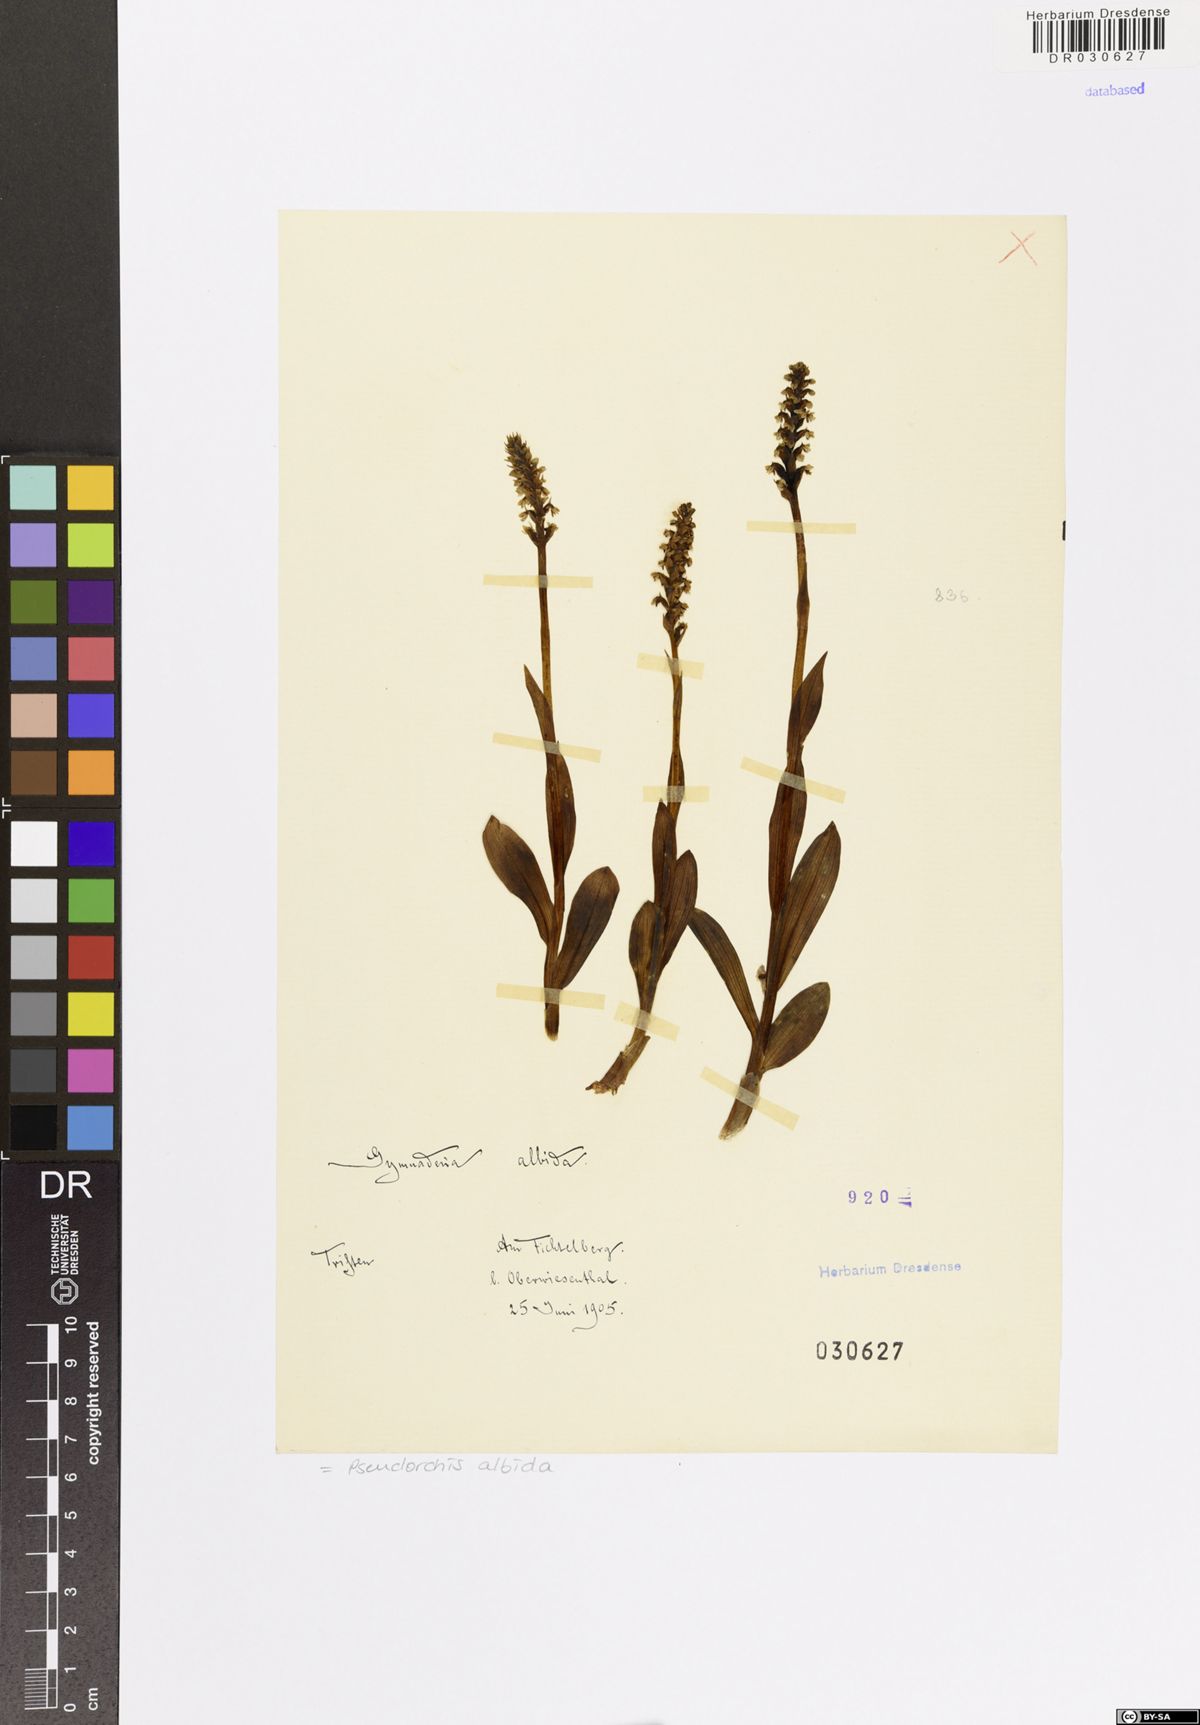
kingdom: Plantae
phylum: Tracheophyta
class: Liliopsida
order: Asparagales
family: Orchidaceae
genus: Pseudorchis
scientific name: Pseudorchis albida
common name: Small-white orchid
